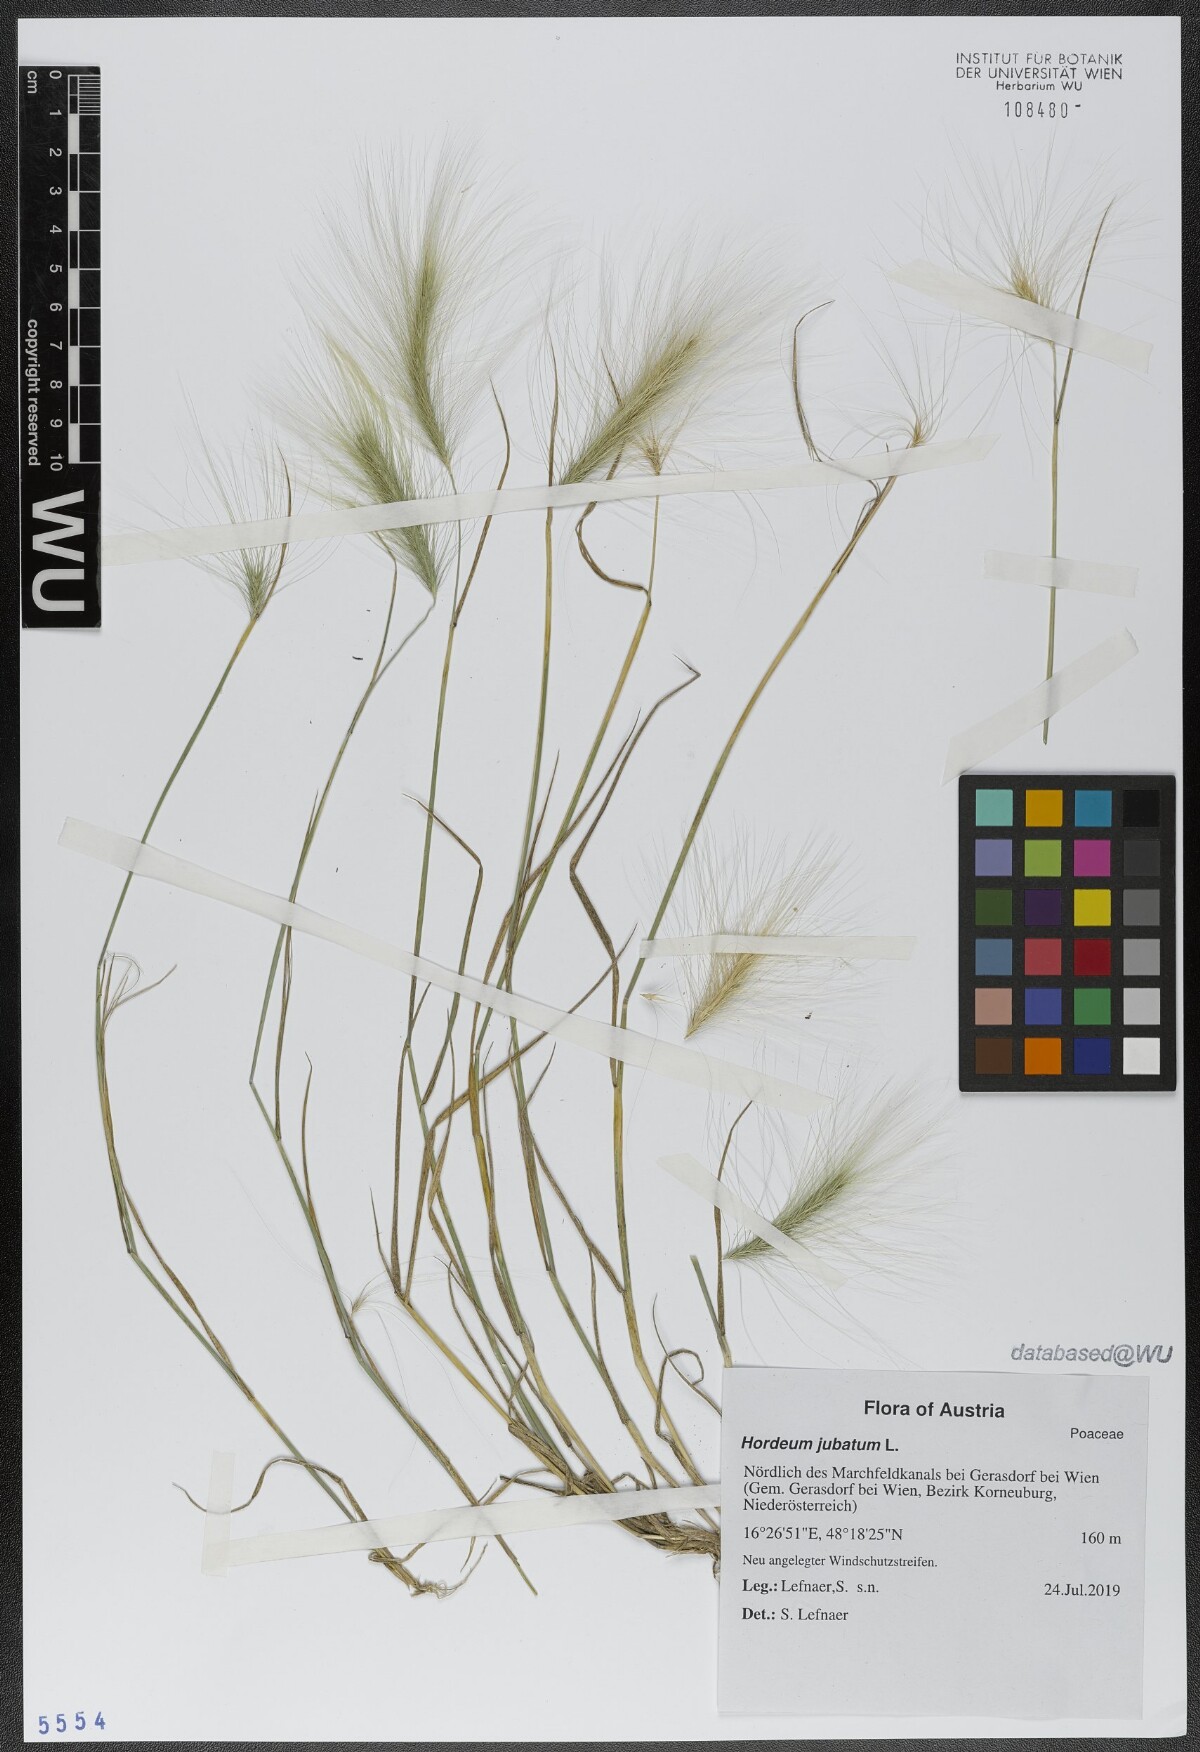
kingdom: Plantae
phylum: Tracheophyta
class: Liliopsida
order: Poales
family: Poaceae
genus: Hordeum
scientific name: Hordeum jubatum
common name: Foxtail barley
